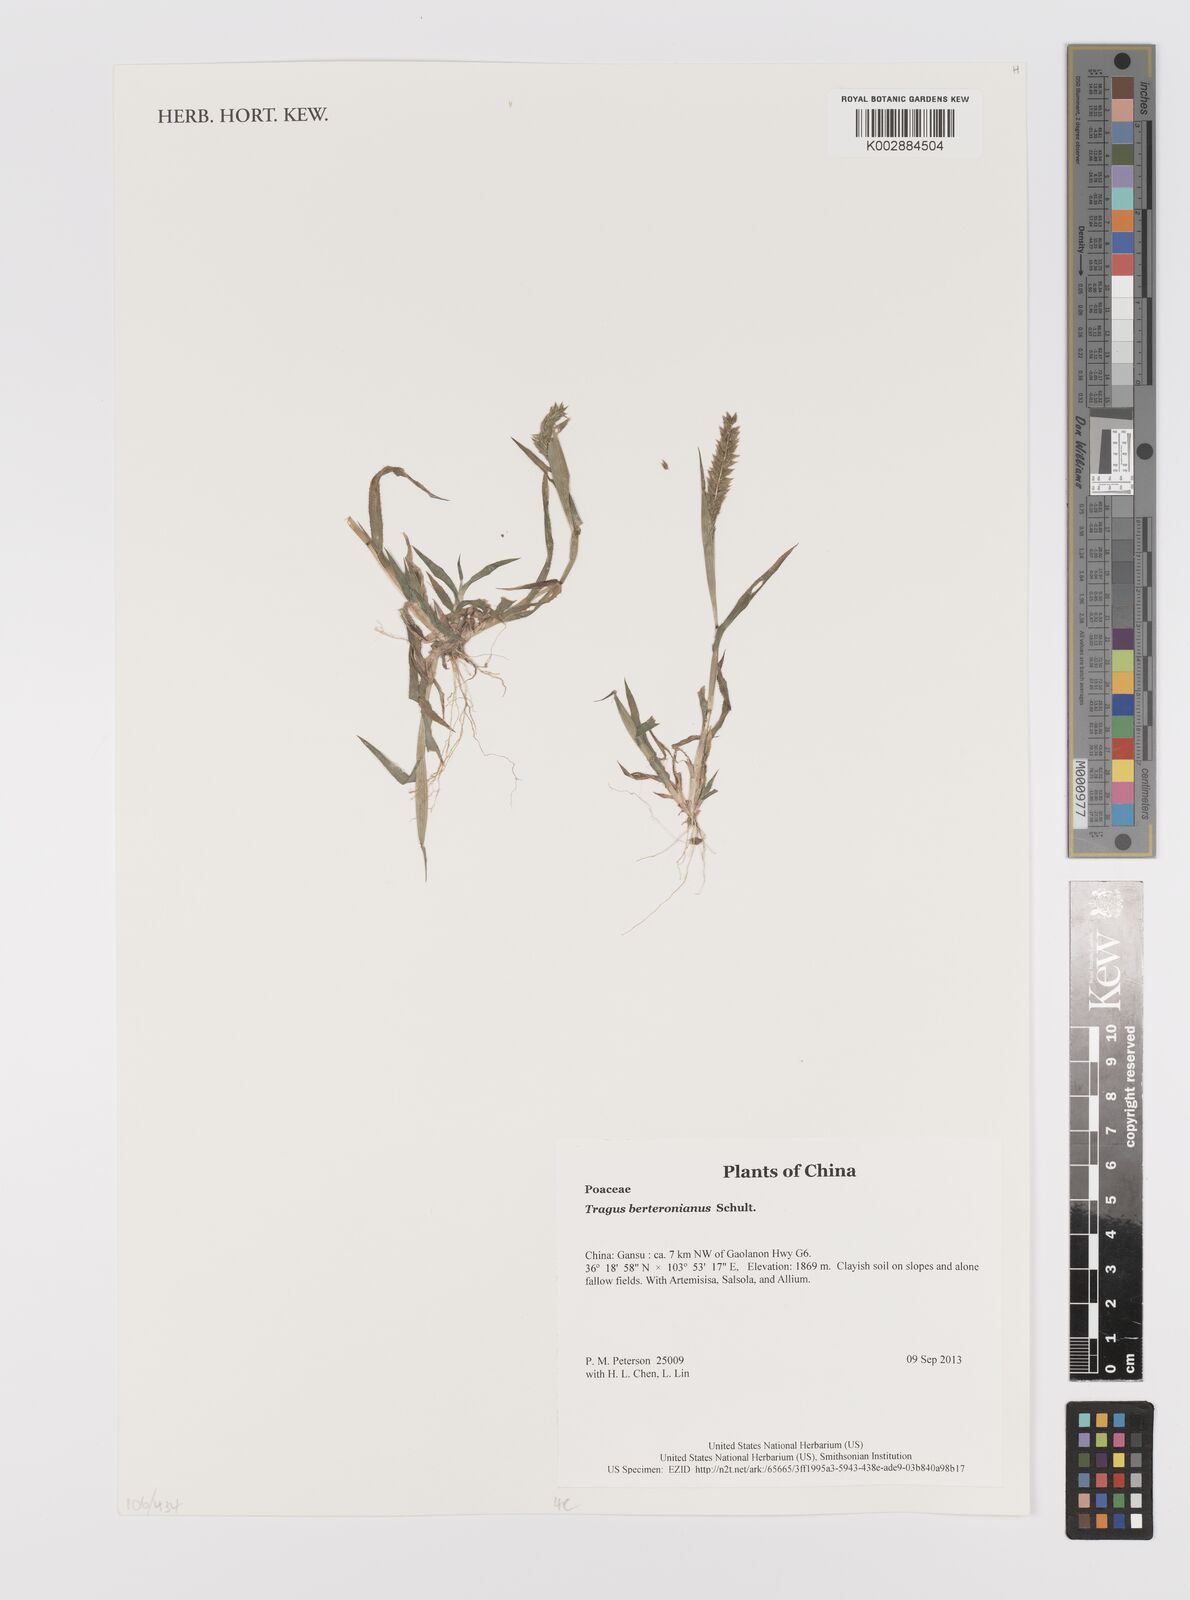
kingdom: Plantae
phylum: Tracheophyta
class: Liliopsida
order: Poales
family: Poaceae
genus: Tragus
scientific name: Tragus berteronianus
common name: African bur-grass
